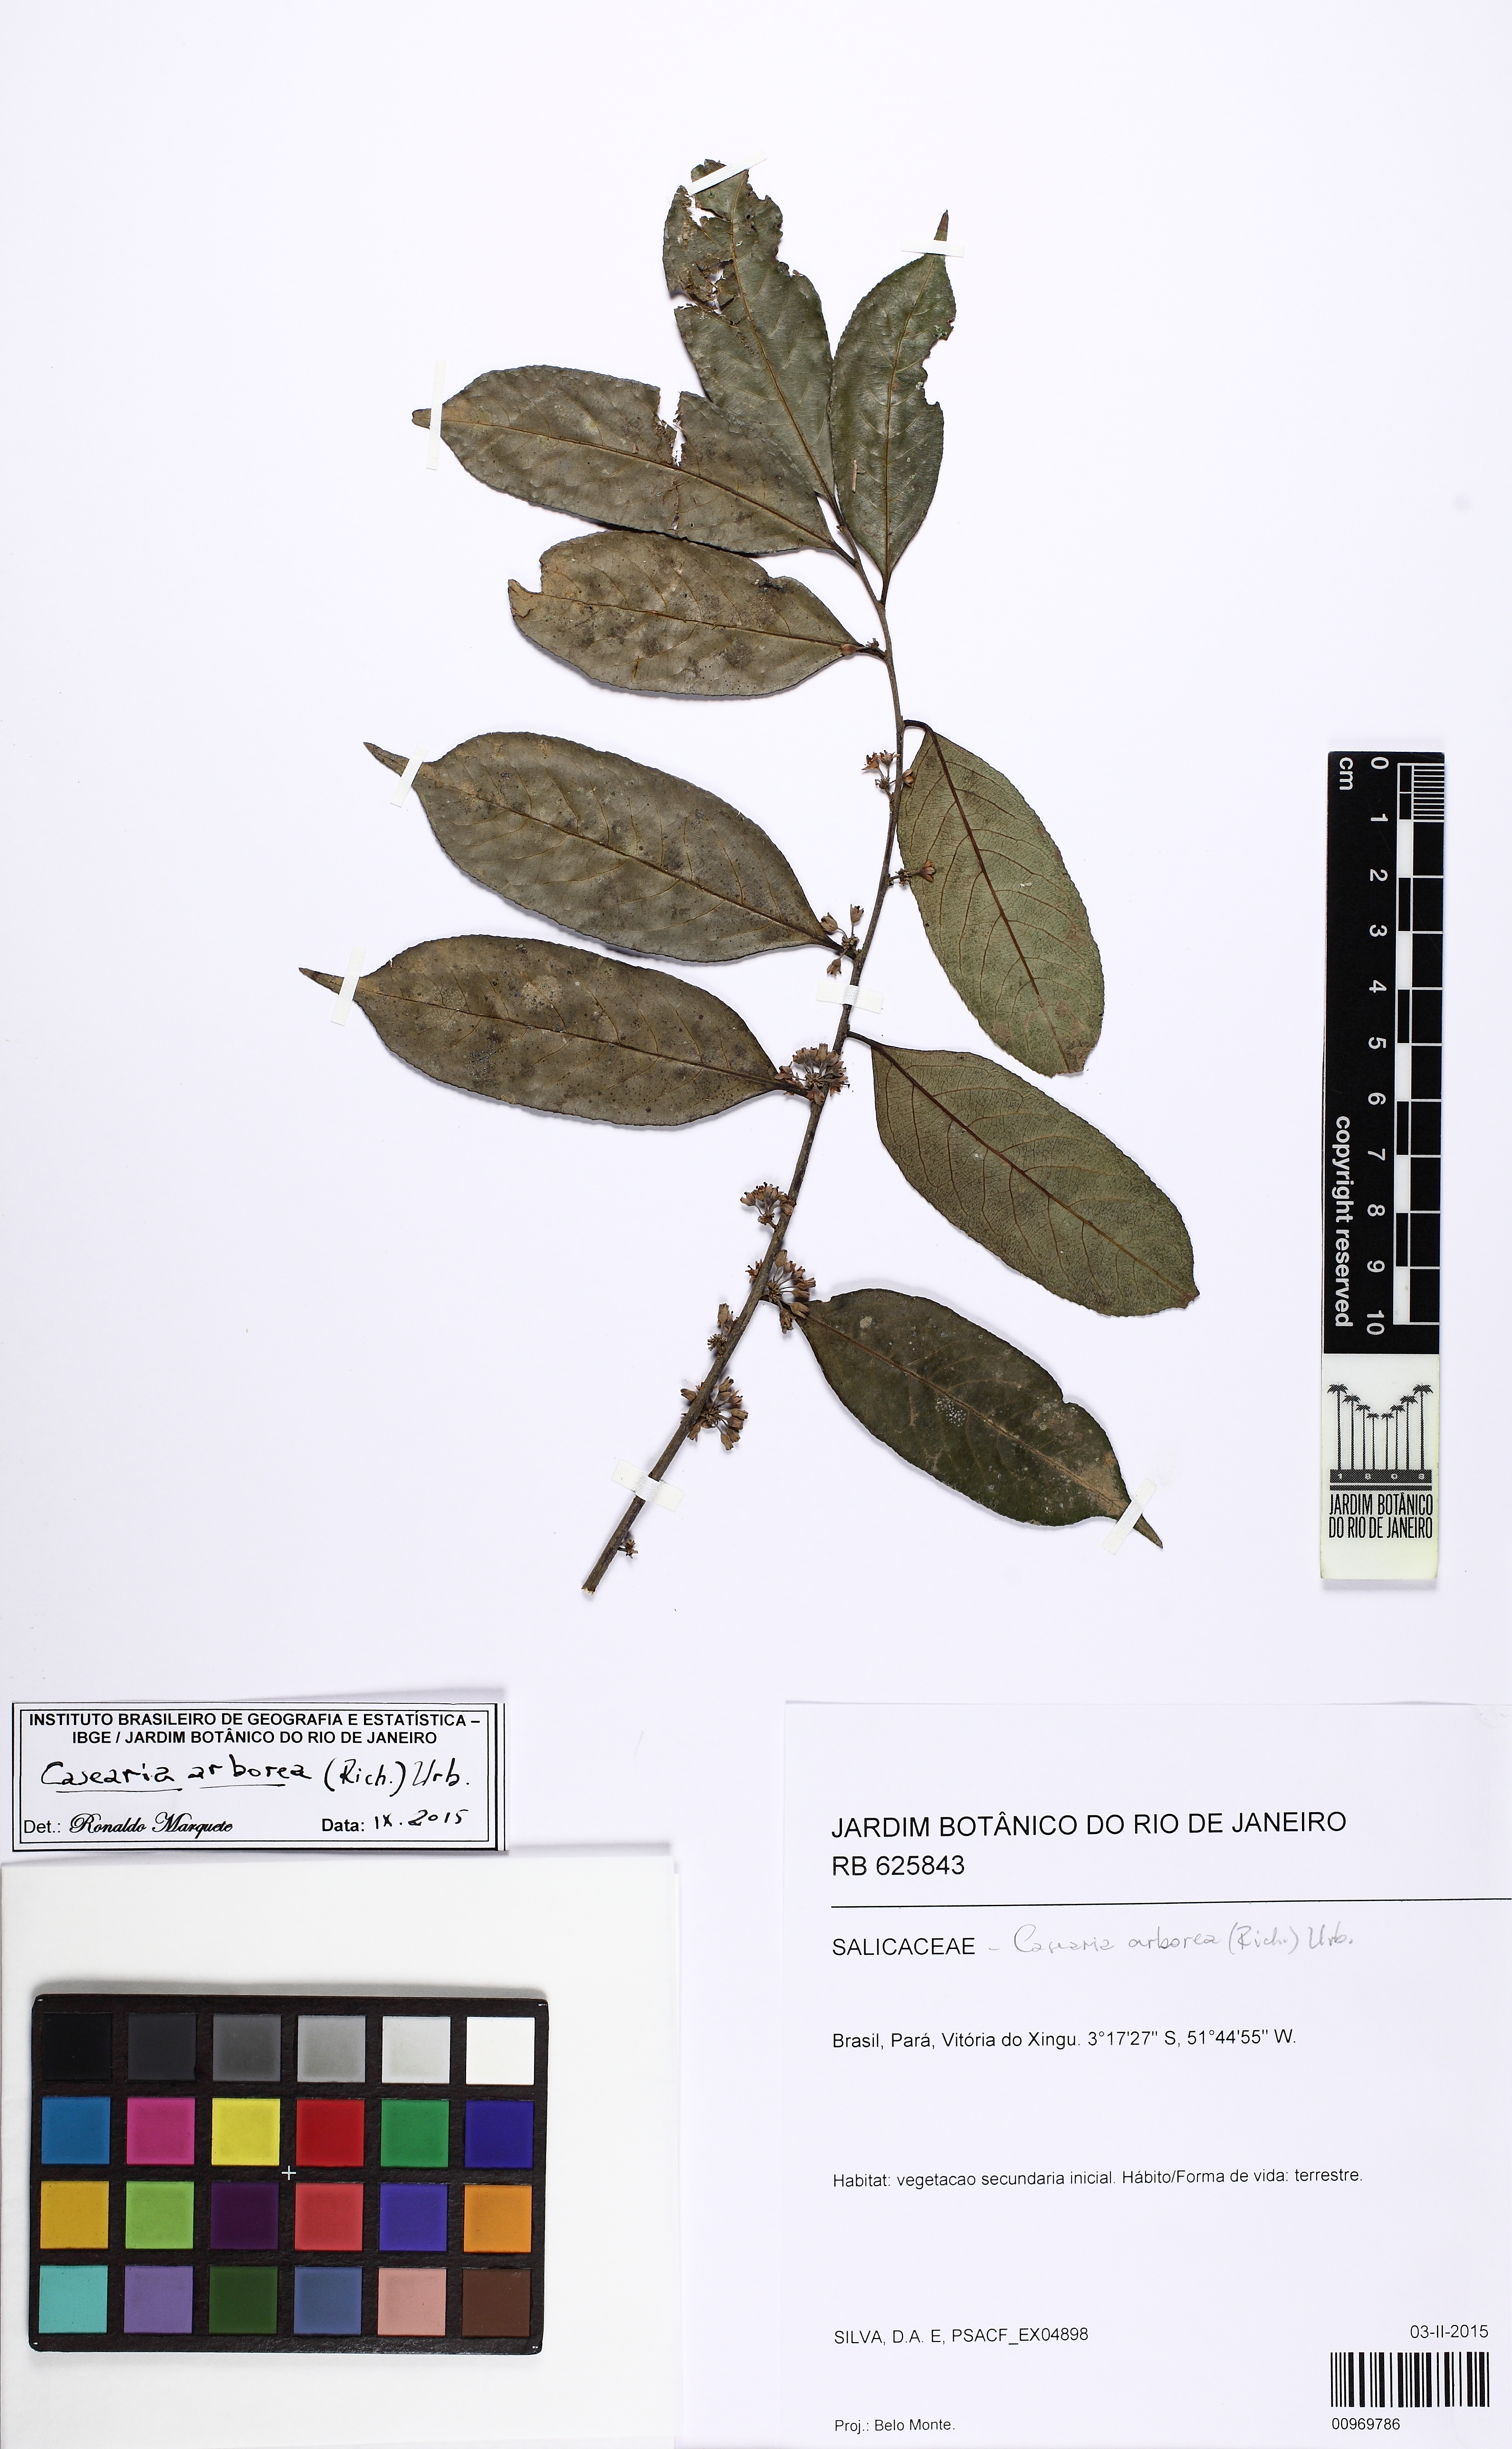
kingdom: Plantae
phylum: Tracheophyta
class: Magnoliopsida
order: Malpighiales
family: Salicaceae
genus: Casearia
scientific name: Casearia arborea
